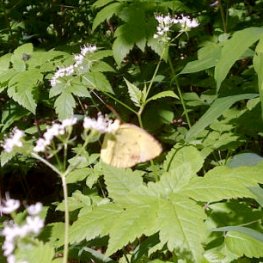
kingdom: Animalia
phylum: Arthropoda
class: Insecta
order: Lepidoptera
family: Pieridae
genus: Pyrisitia
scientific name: Pyrisitia lisa
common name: Little Yellow
